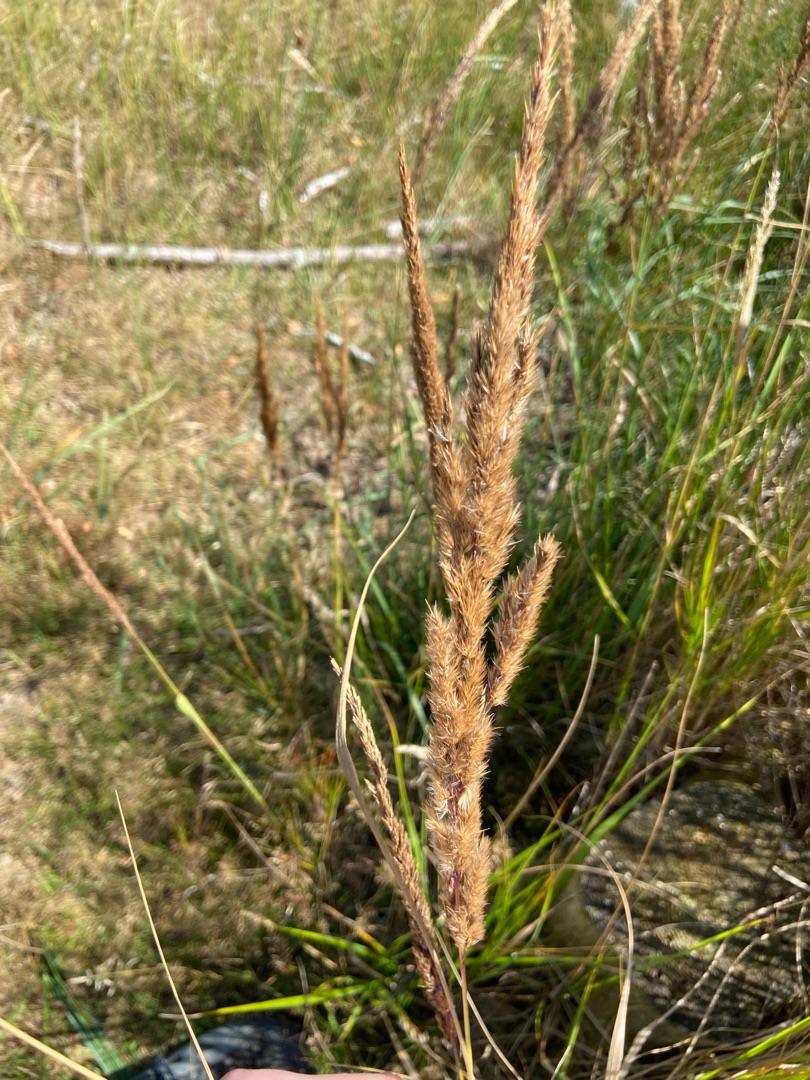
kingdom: Plantae
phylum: Tracheophyta
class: Liliopsida
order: Poales
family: Poaceae
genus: Achnatherum
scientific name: Achnatherum calamagrostis
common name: Stivtoppet rørhvene
